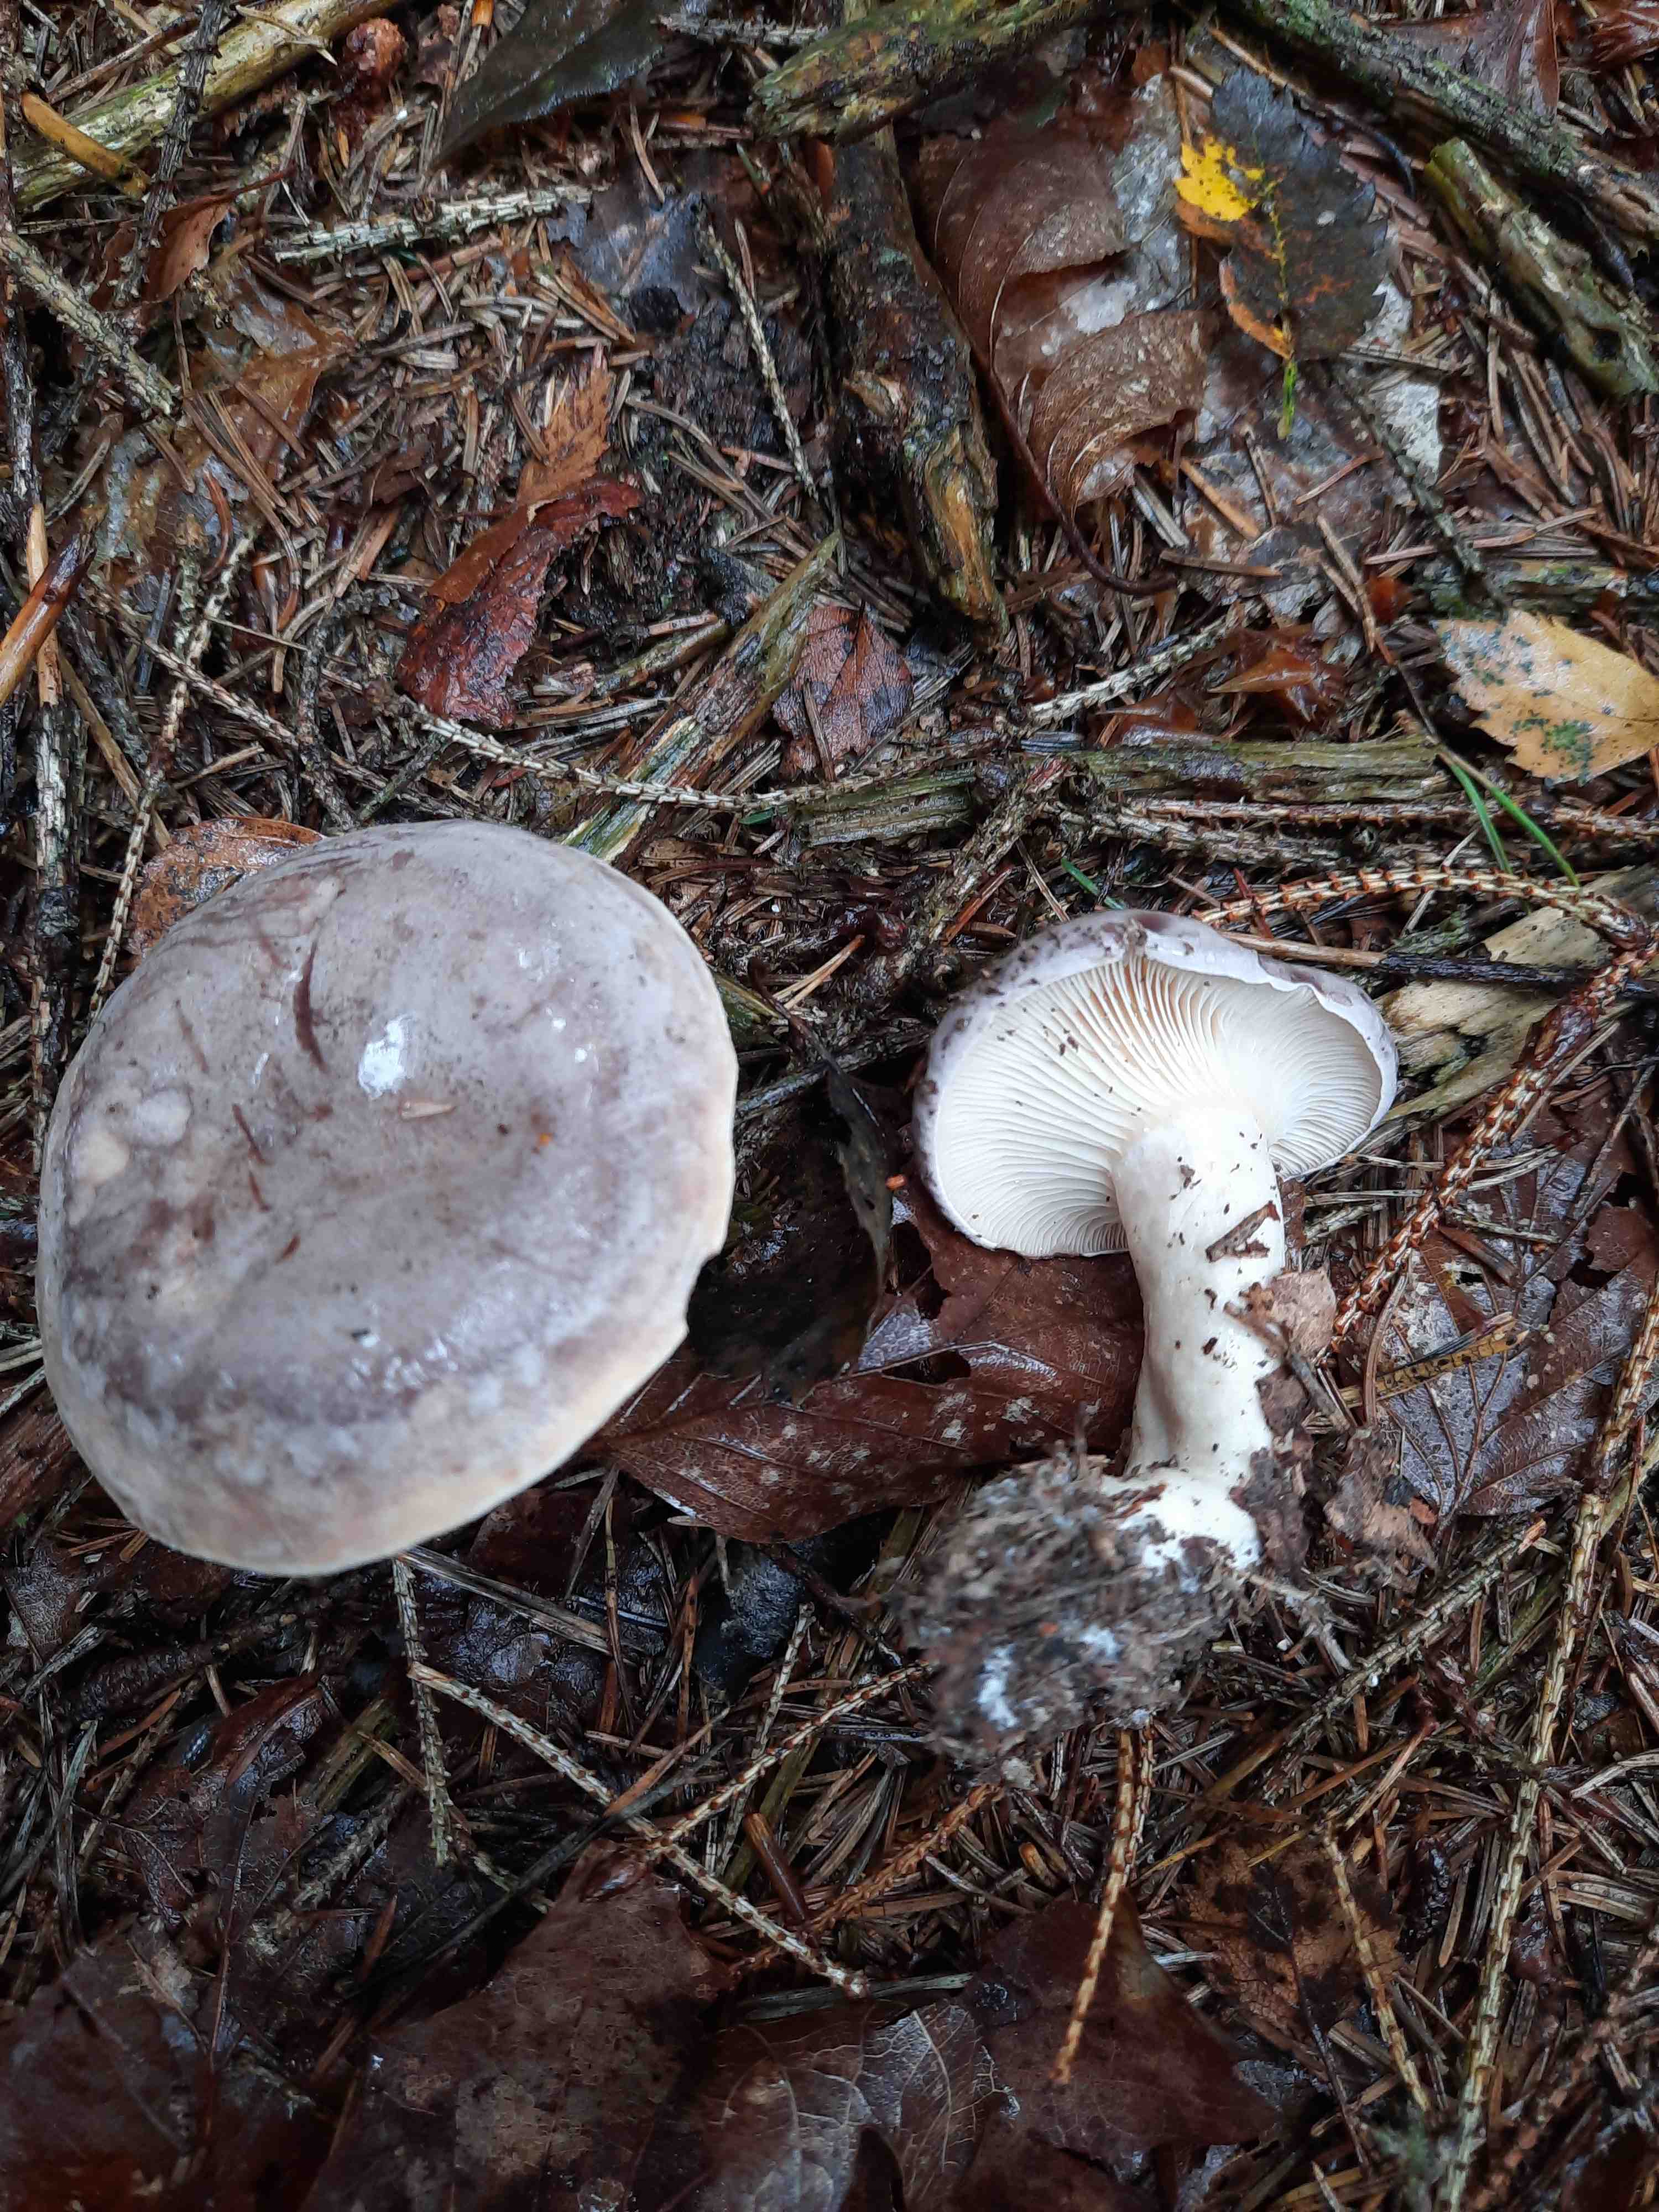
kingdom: Fungi
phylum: Basidiomycota
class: Agaricomycetes
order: Russulales
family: Russulaceae
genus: Lactarius
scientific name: Lactarius trivialis
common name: nordisk mælkehat
